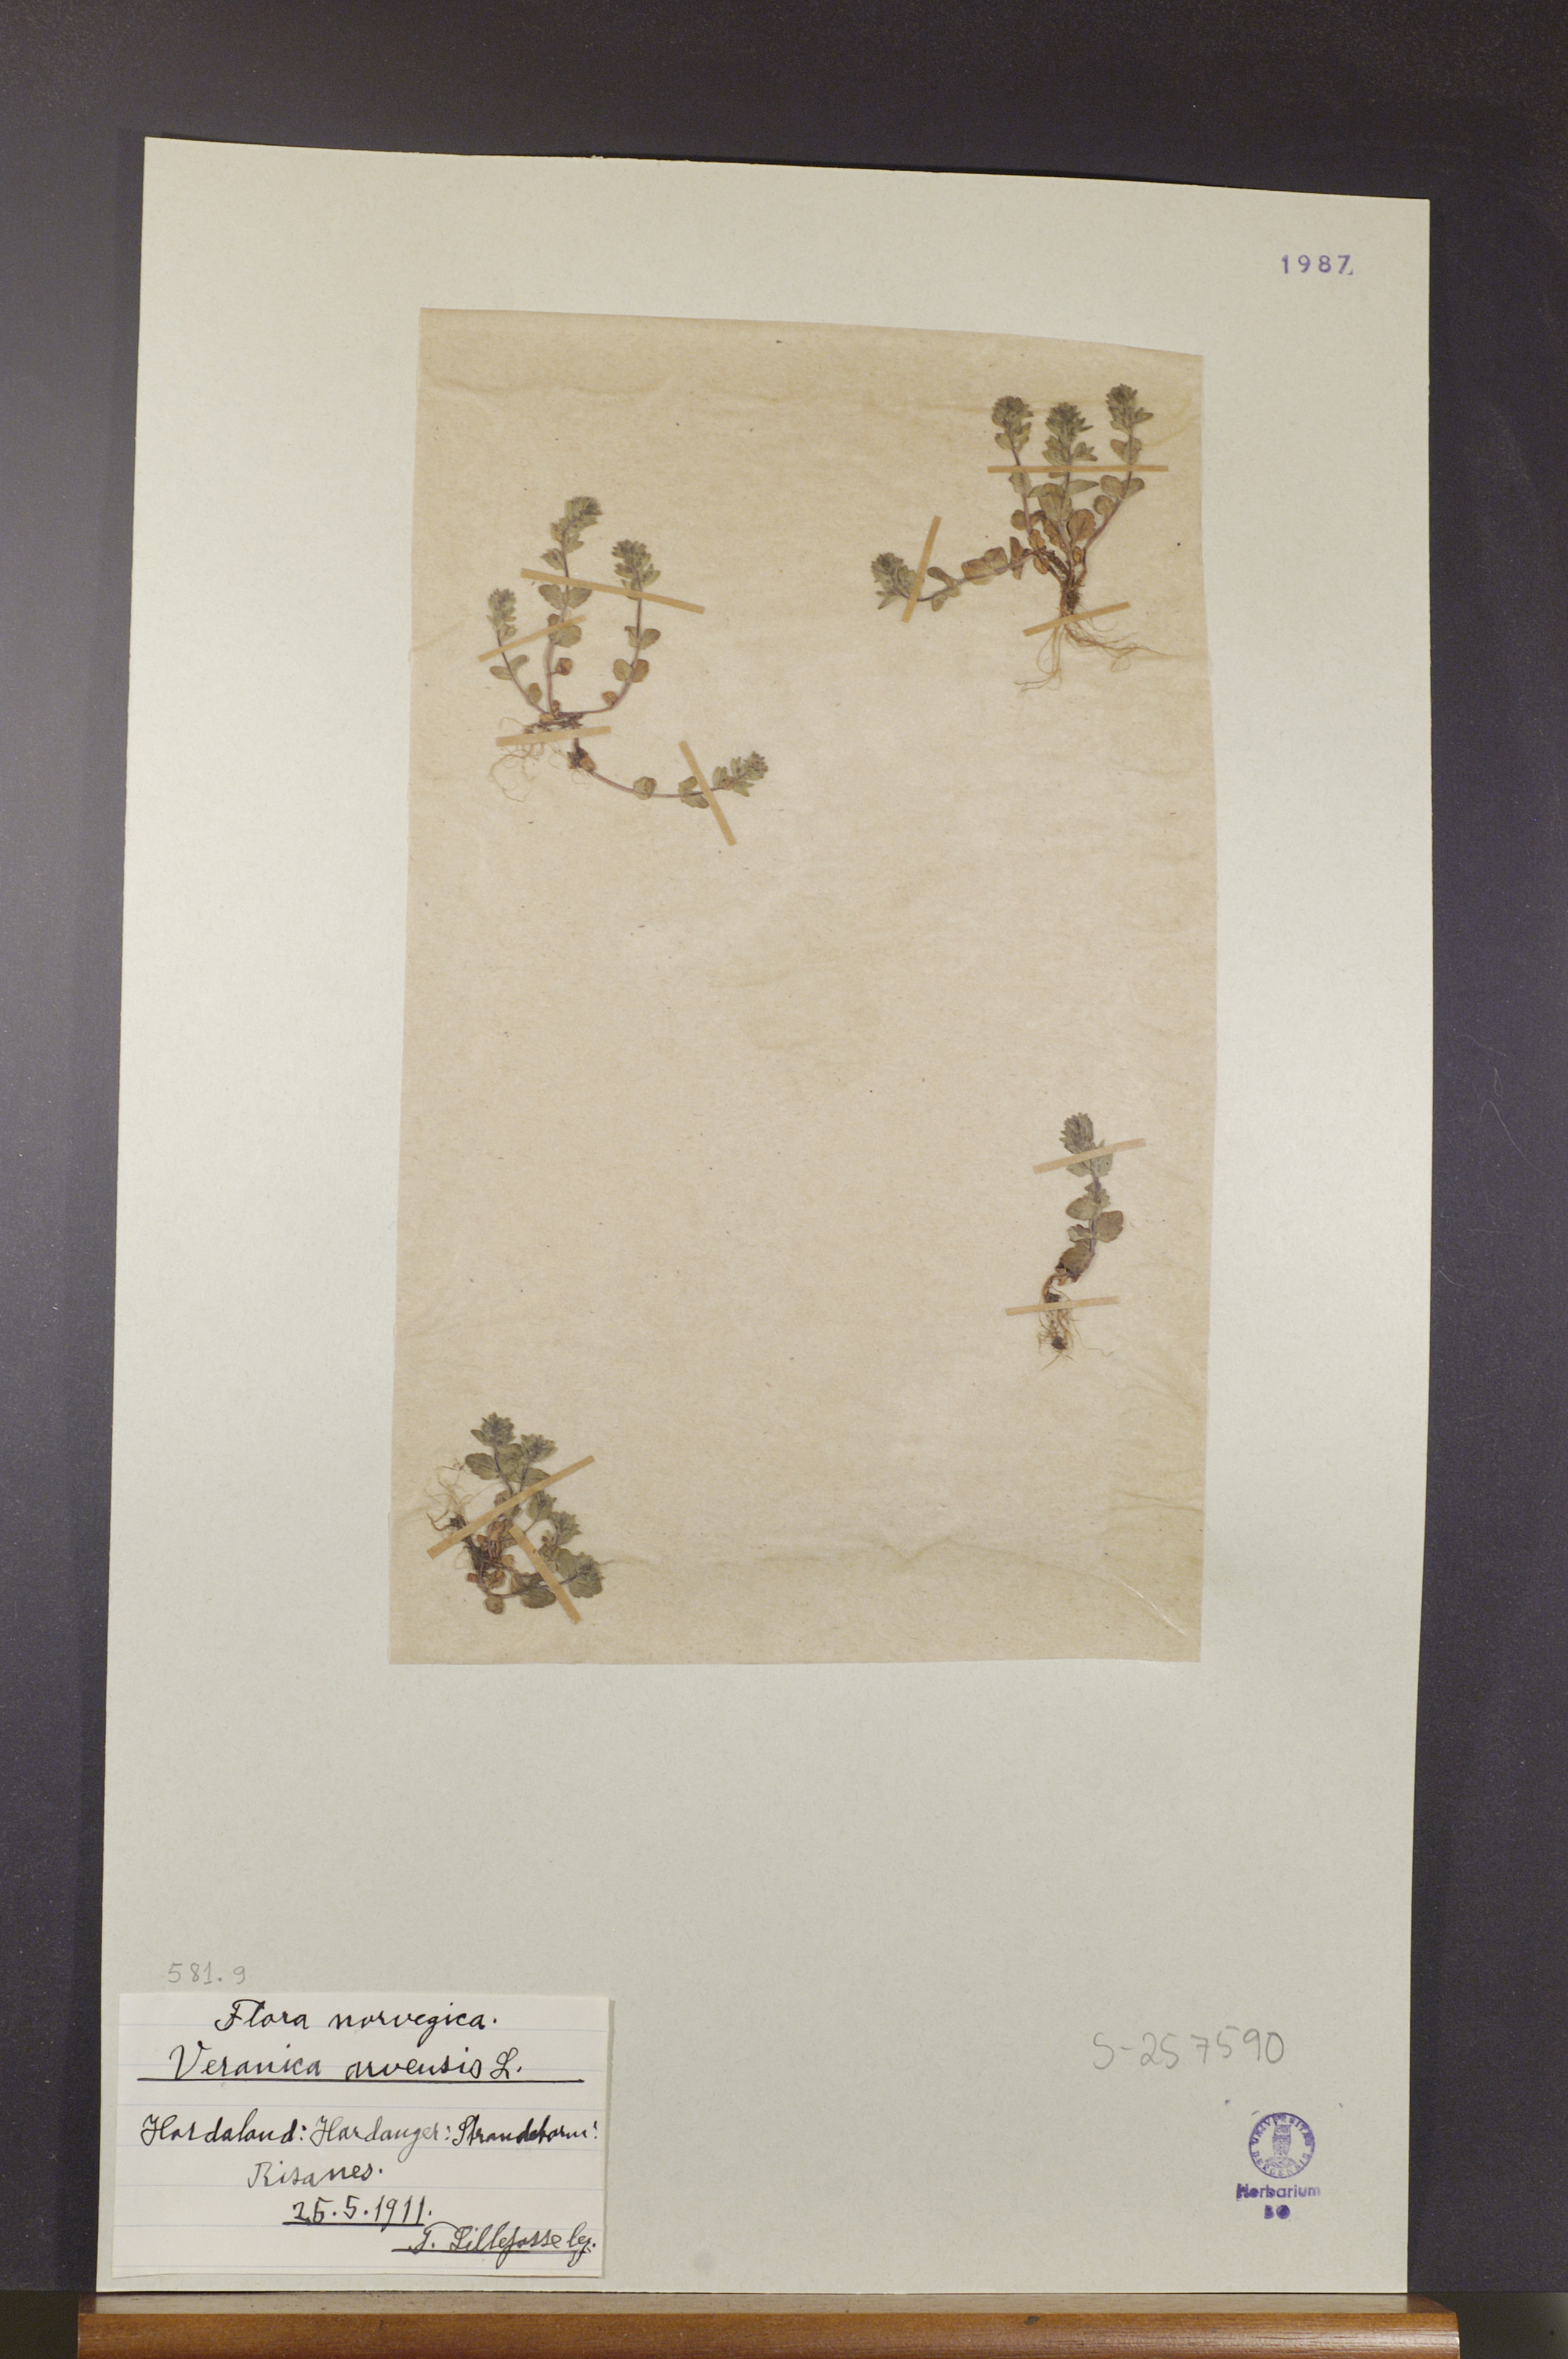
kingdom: Plantae
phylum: Tracheophyta
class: Magnoliopsida
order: Lamiales
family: Plantaginaceae
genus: Veronica
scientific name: Veronica arvensis
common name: Corn speedwell
